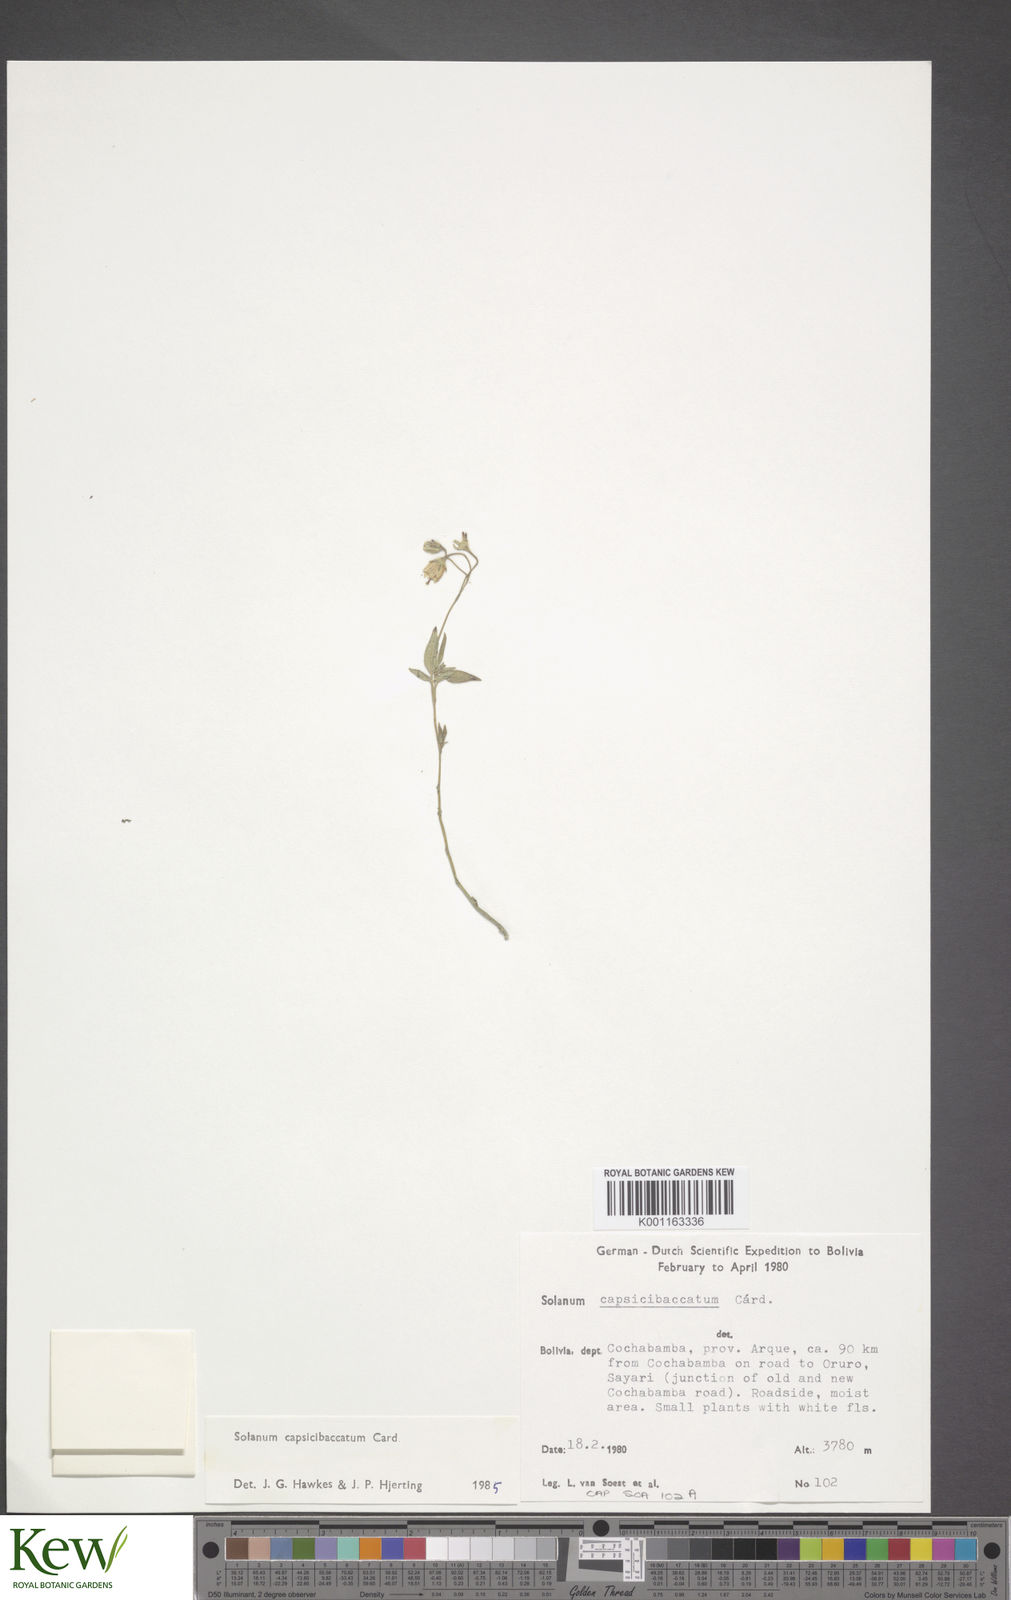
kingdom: Plantae
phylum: Tracheophyta
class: Magnoliopsida
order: Solanales
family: Solanaceae
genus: Solanum
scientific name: Solanum stipuloideum
